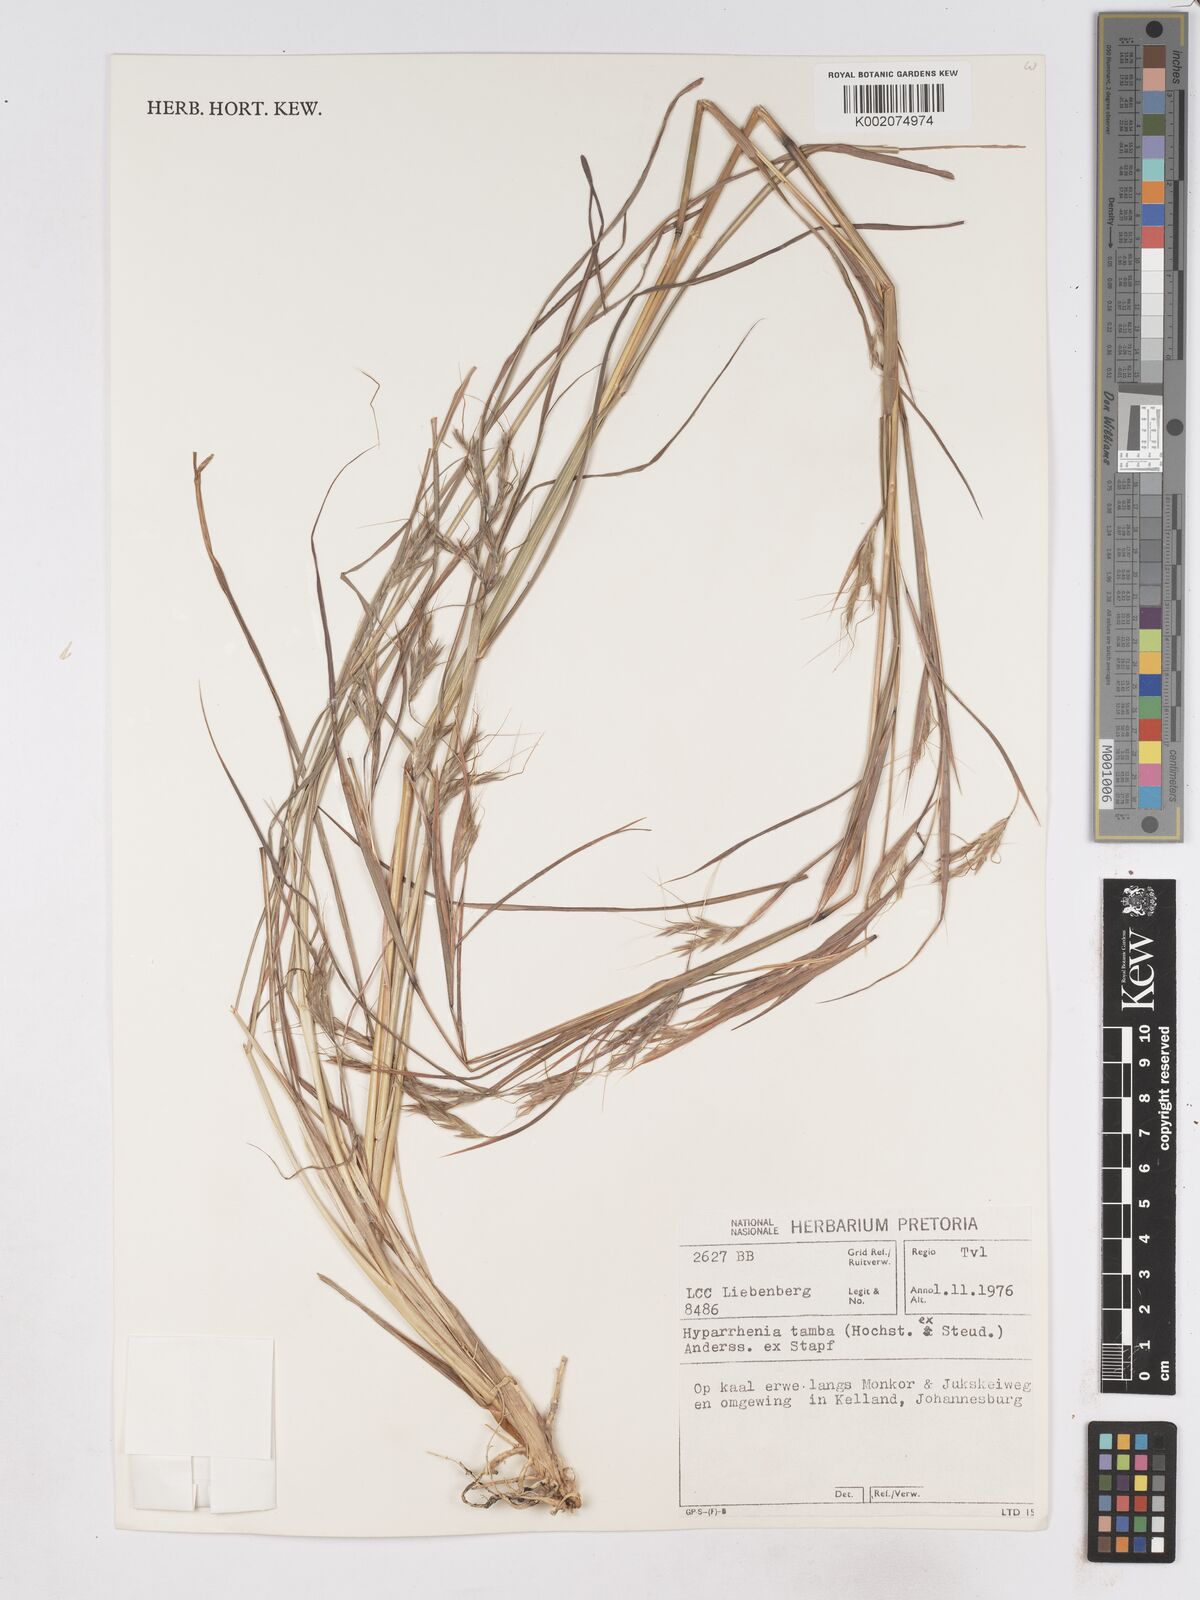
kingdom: Plantae
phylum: Tracheophyta
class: Liliopsida
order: Poales
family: Poaceae
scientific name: Poaceae
